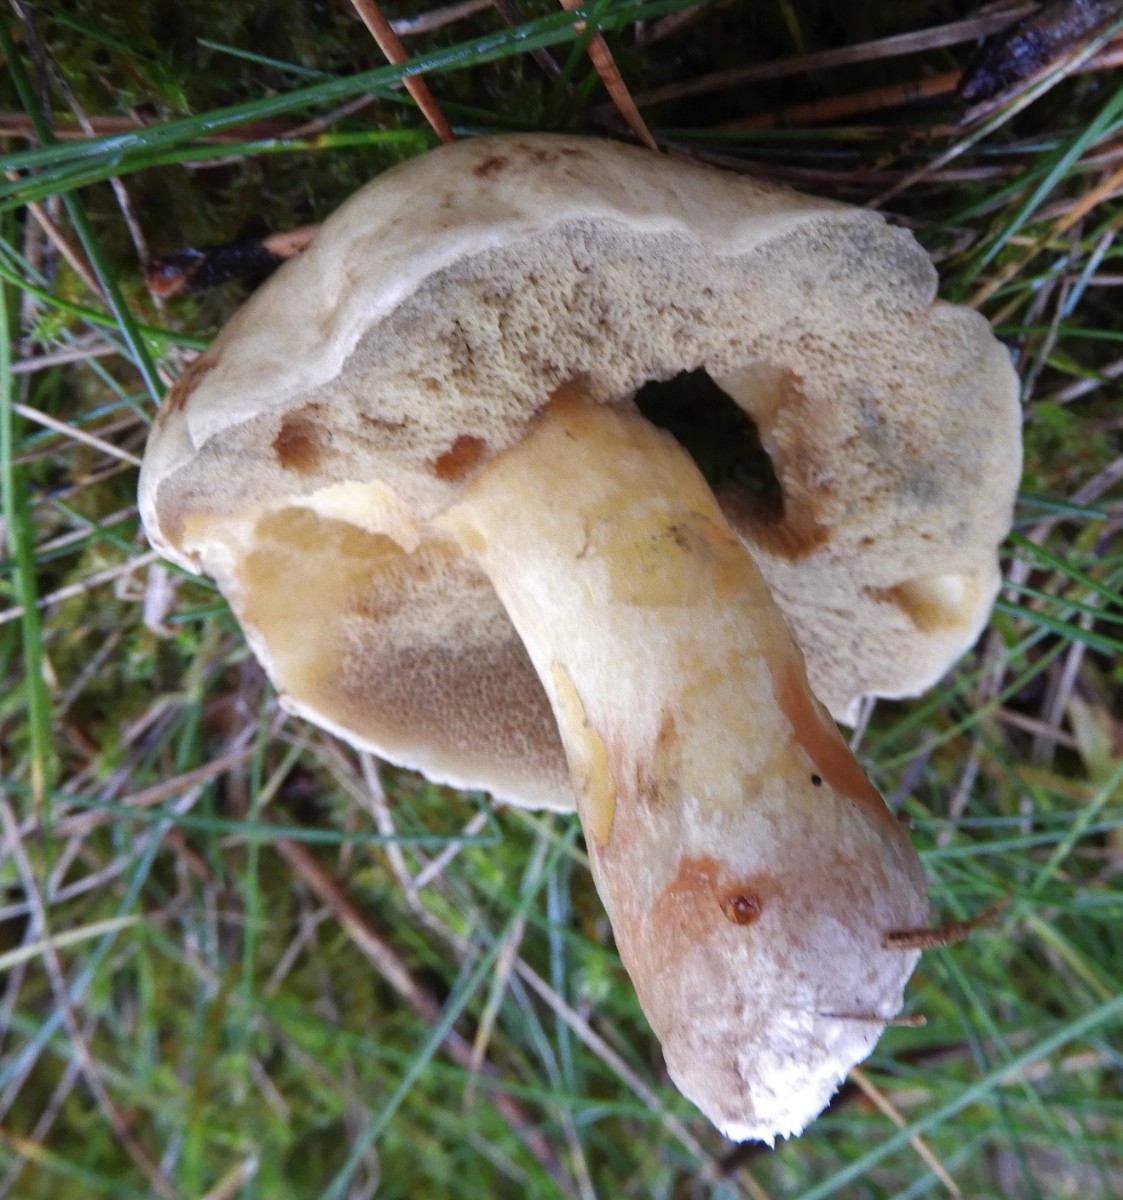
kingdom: Fungi
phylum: Basidiomycota
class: Agaricomycetes
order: Boletales
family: Boletaceae
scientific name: Boletaceae
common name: rørhatfamilien
